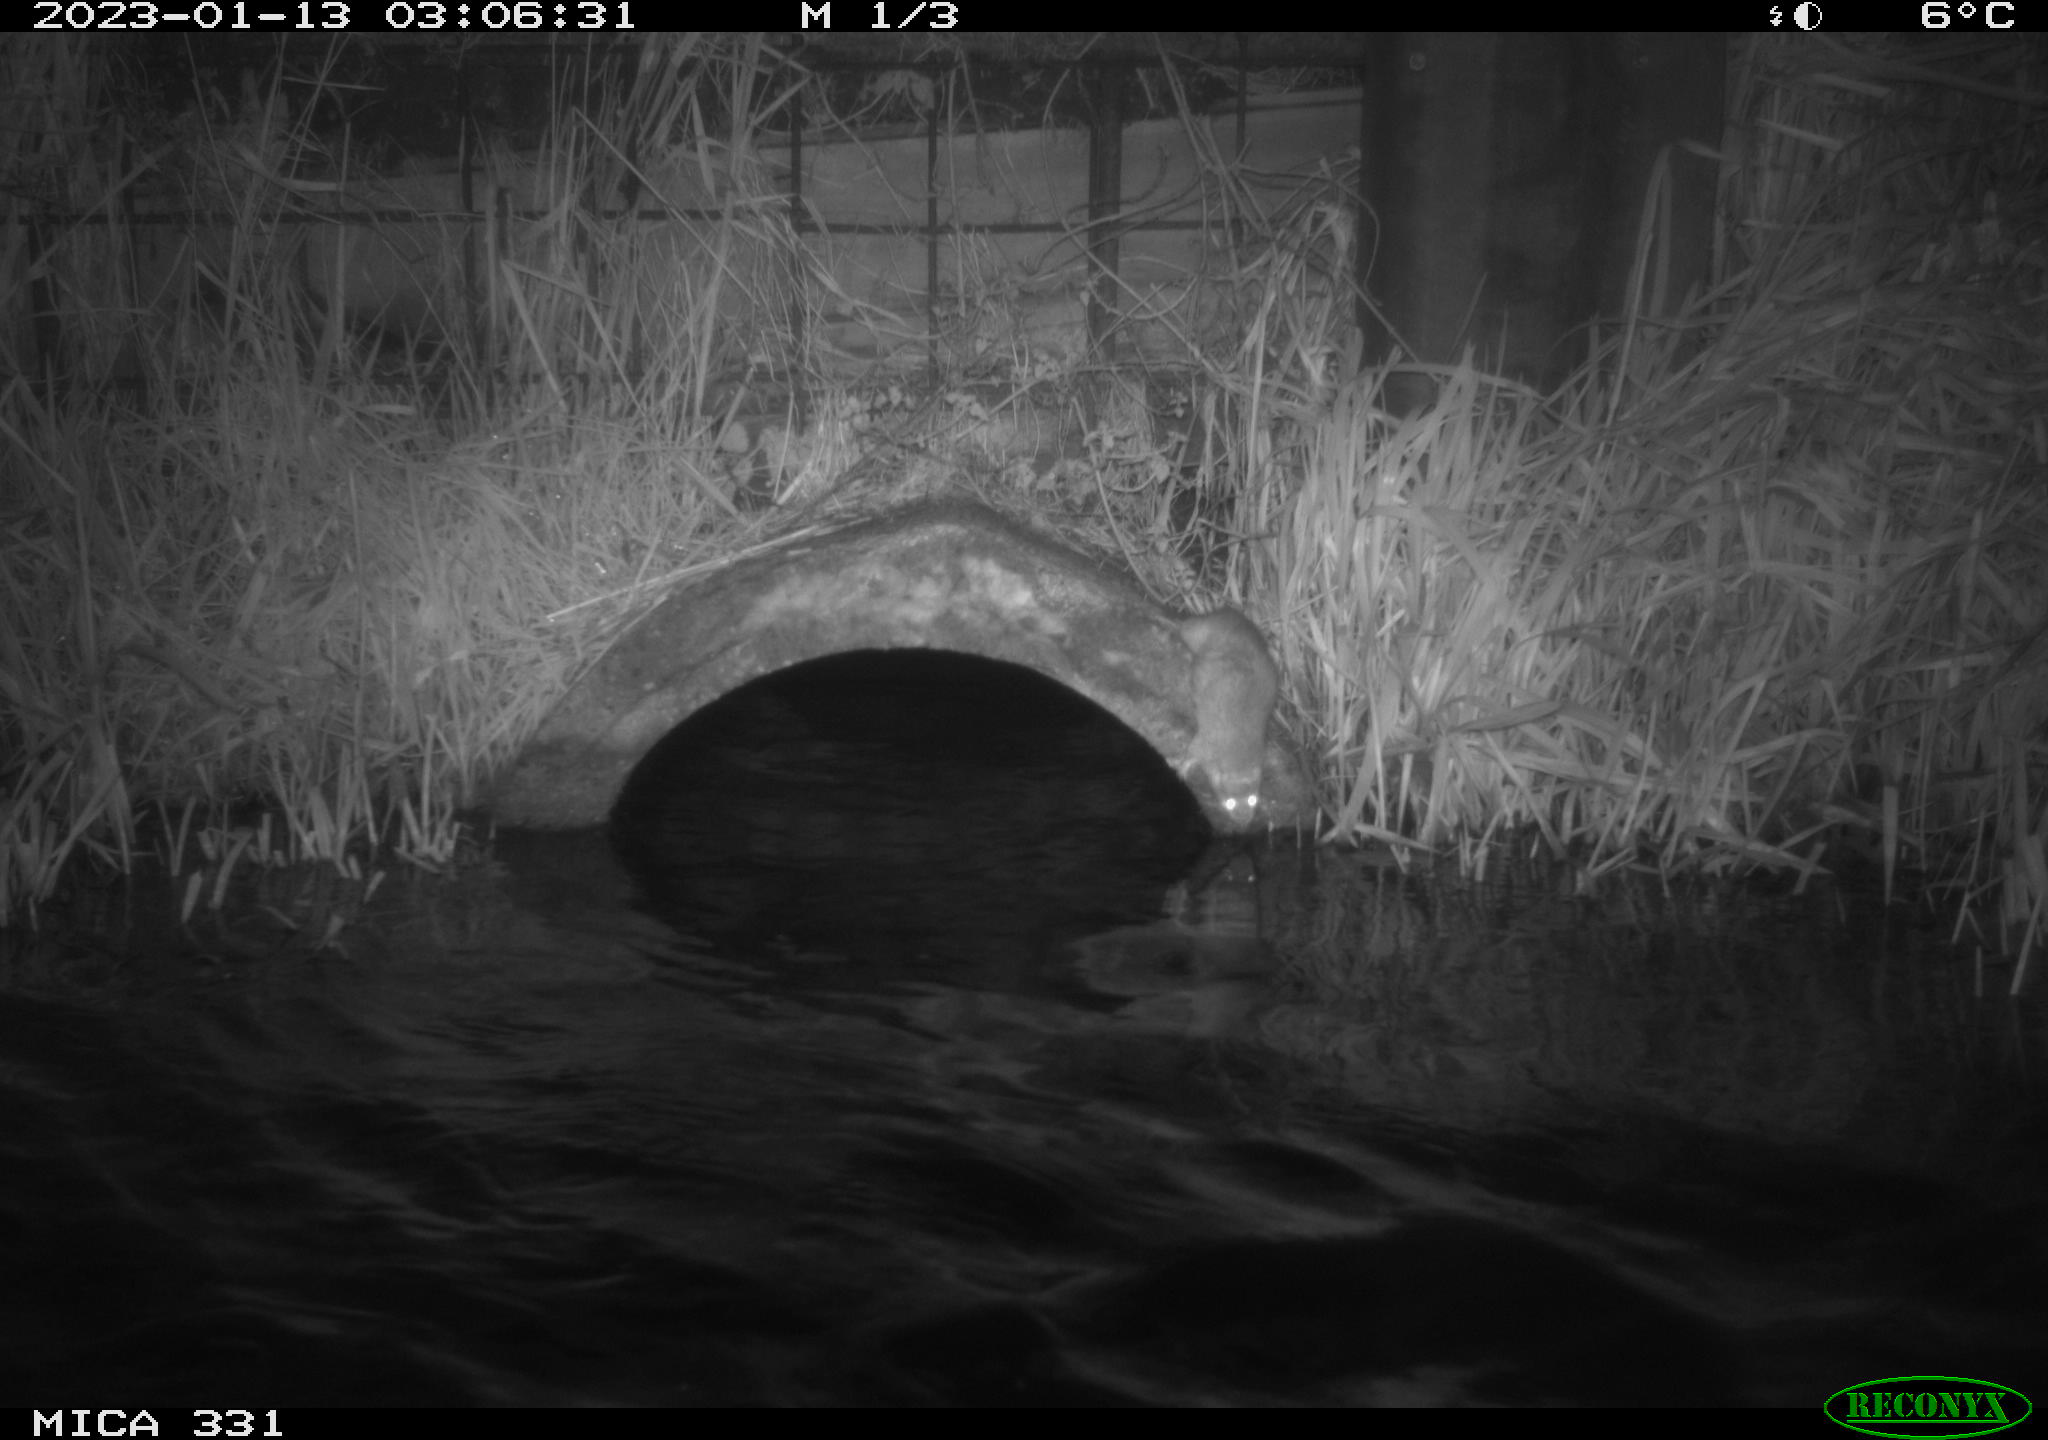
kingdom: Animalia
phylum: Chordata
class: Mammalia
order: Rodentia
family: Muridae
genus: Rattus
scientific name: Rattus norvegicus
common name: Brown rat
